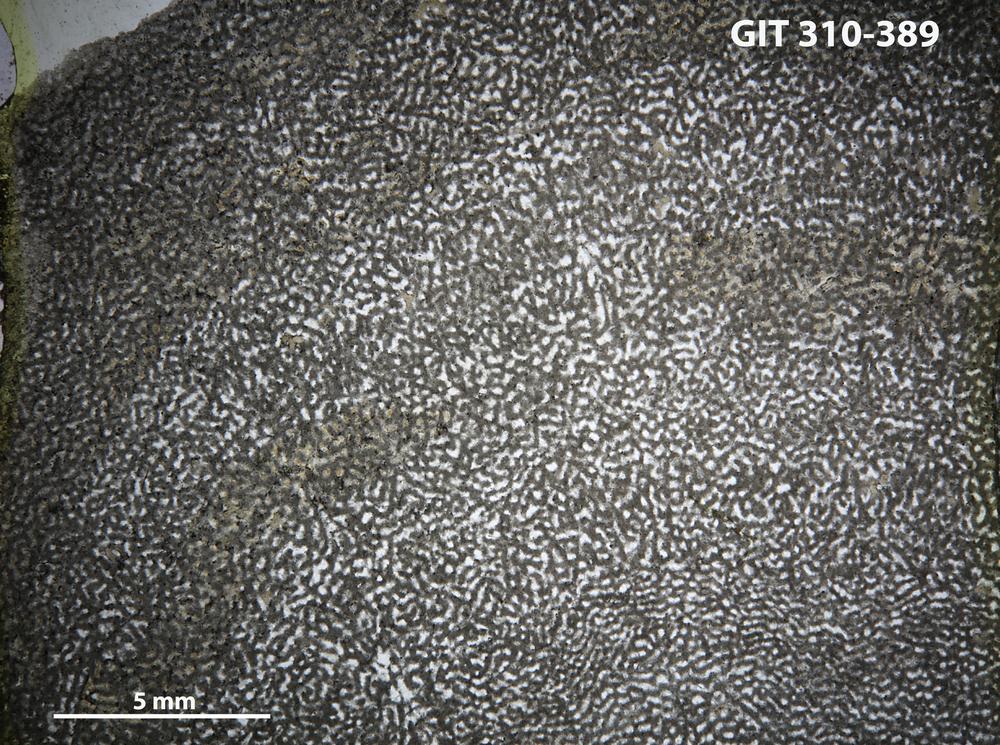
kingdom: Animalia
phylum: Porifera
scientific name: Porifera
